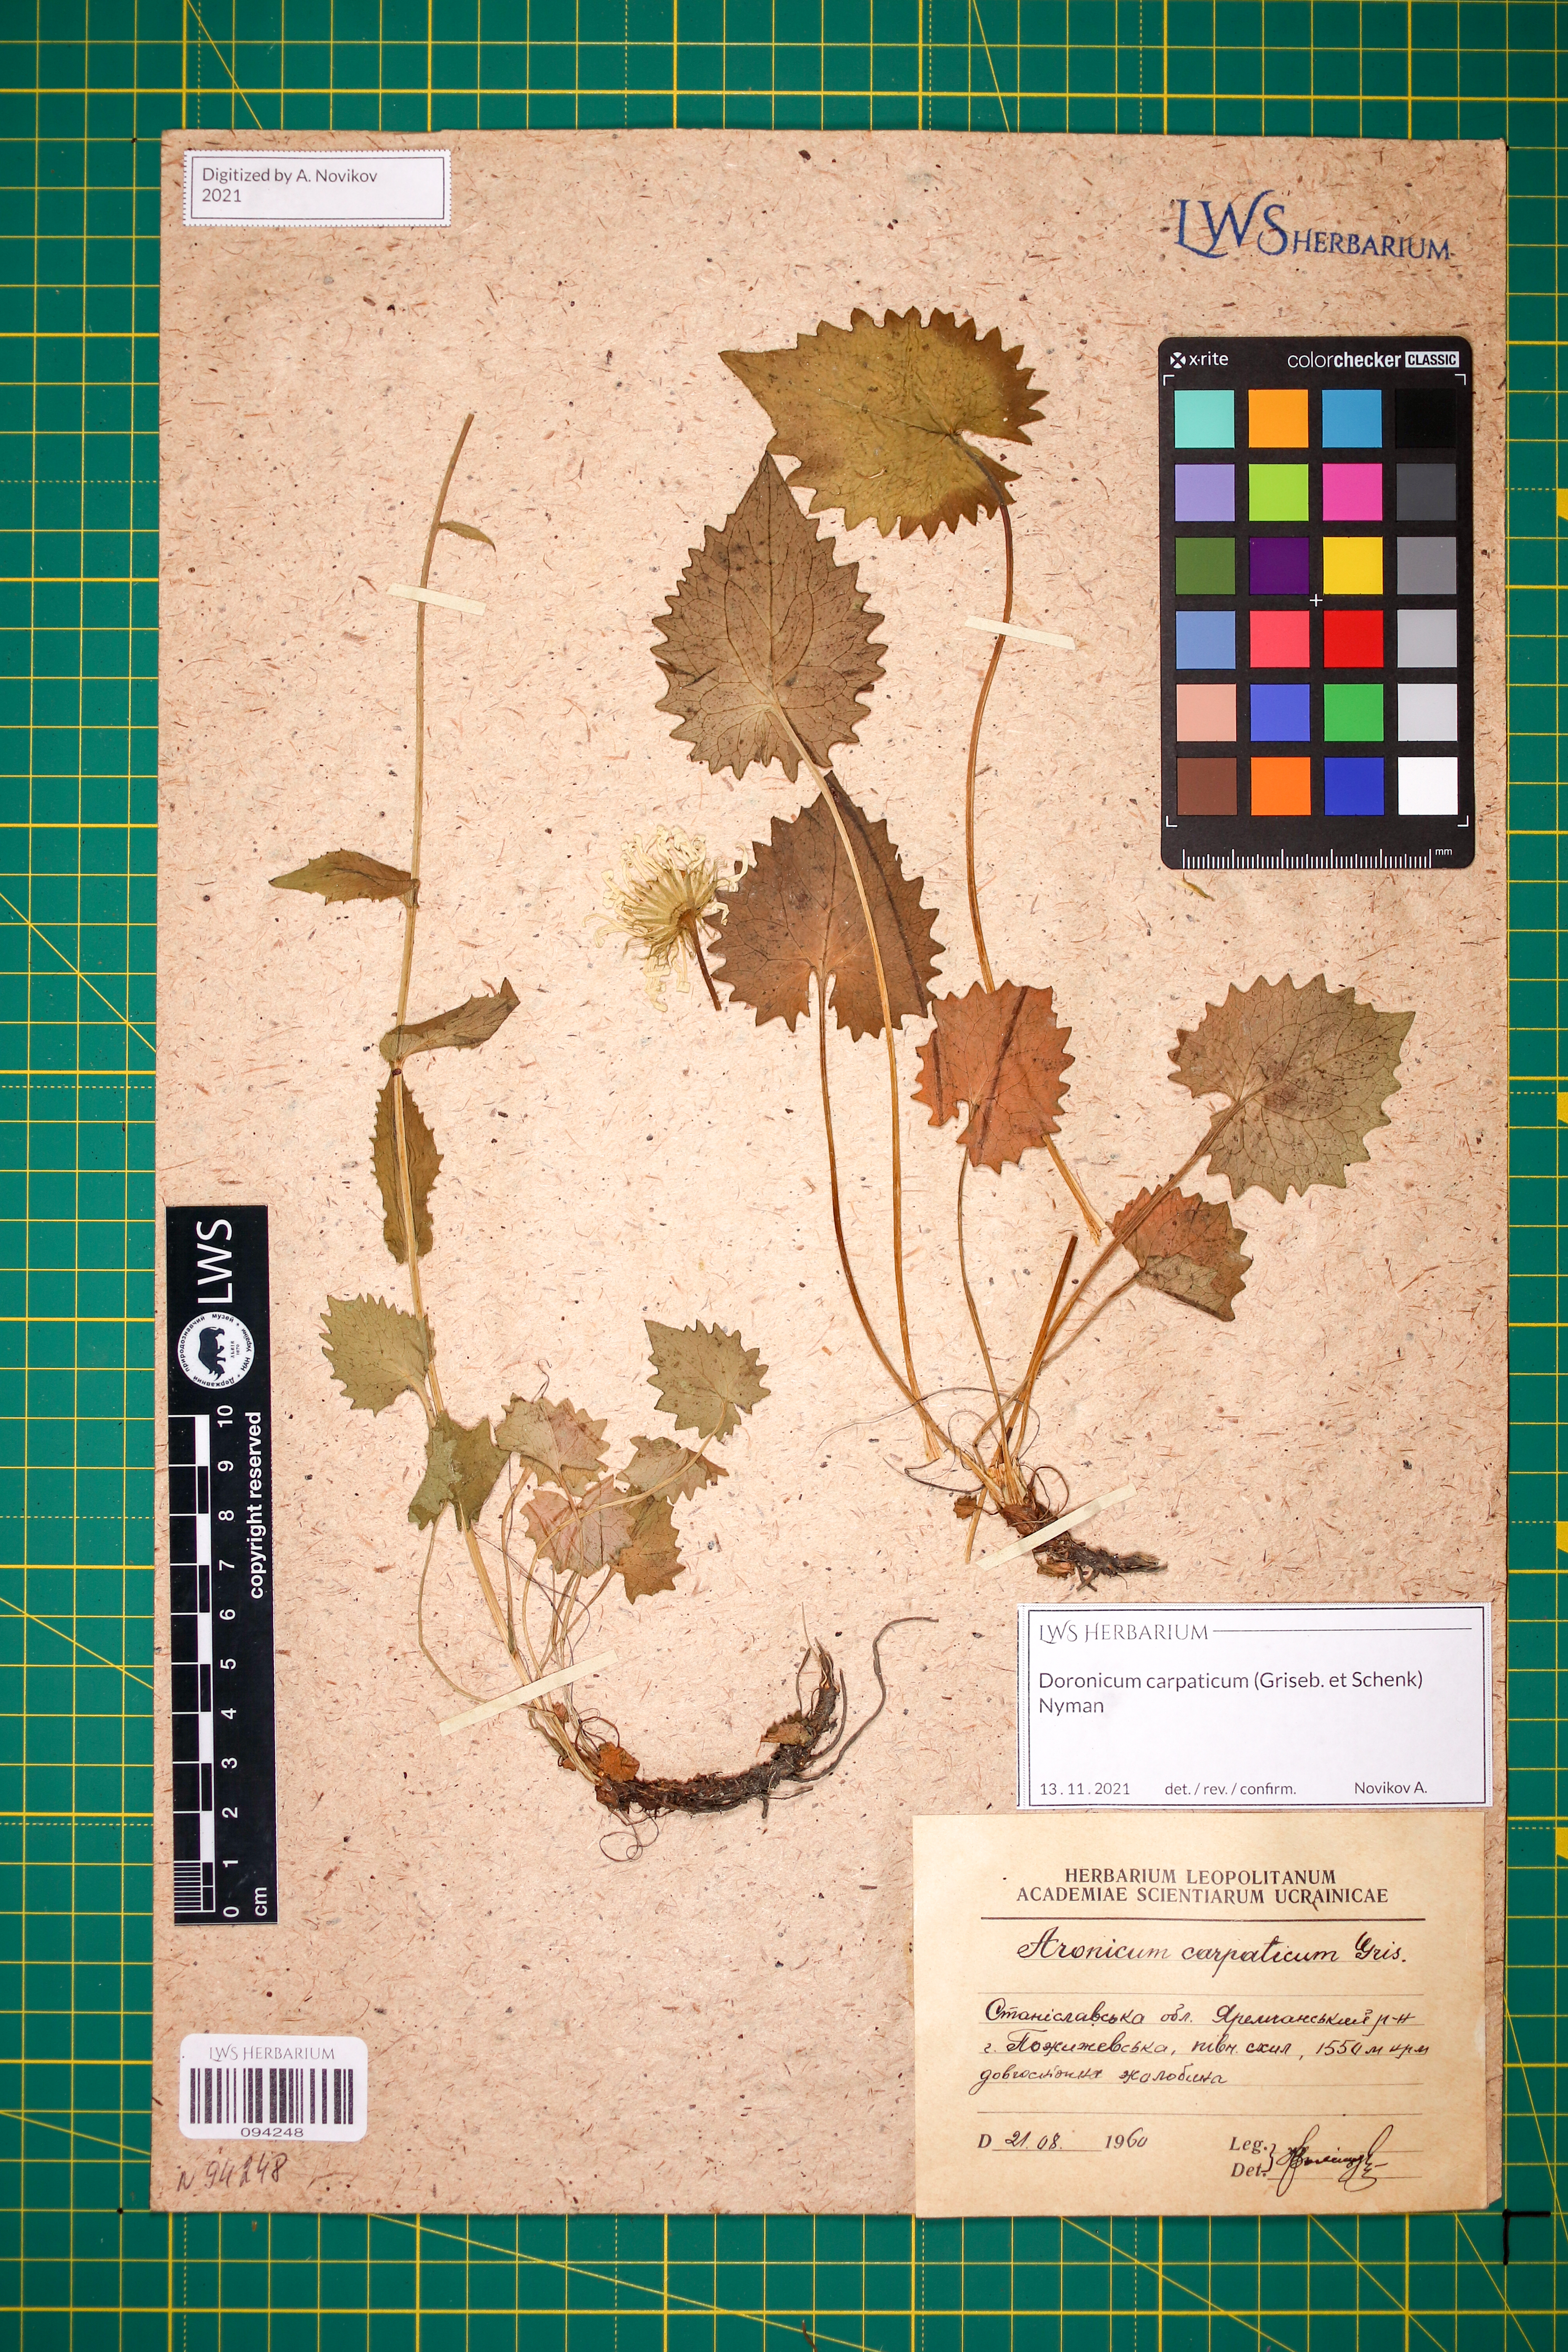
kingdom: Plantae
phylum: Tracheophyta
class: Magnoliopsida
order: Asterales
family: Asteraceae
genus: Doronicum
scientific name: Doronicum carpaticum
